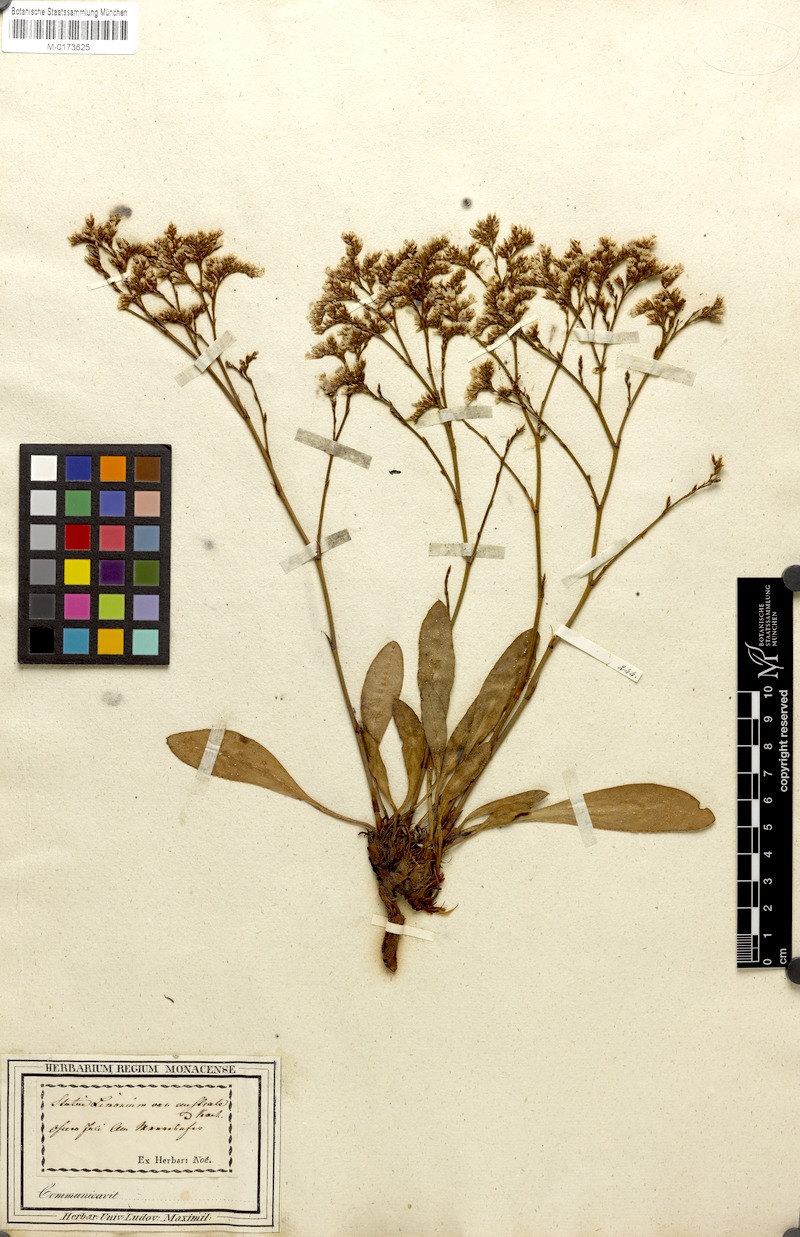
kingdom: Plantae
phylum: Tracheophyta
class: Magnoliopsida
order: Caryophyllales
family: Plumbaginaceae
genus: Limonium
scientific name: Limonium vulgare
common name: Common sea-lavender
